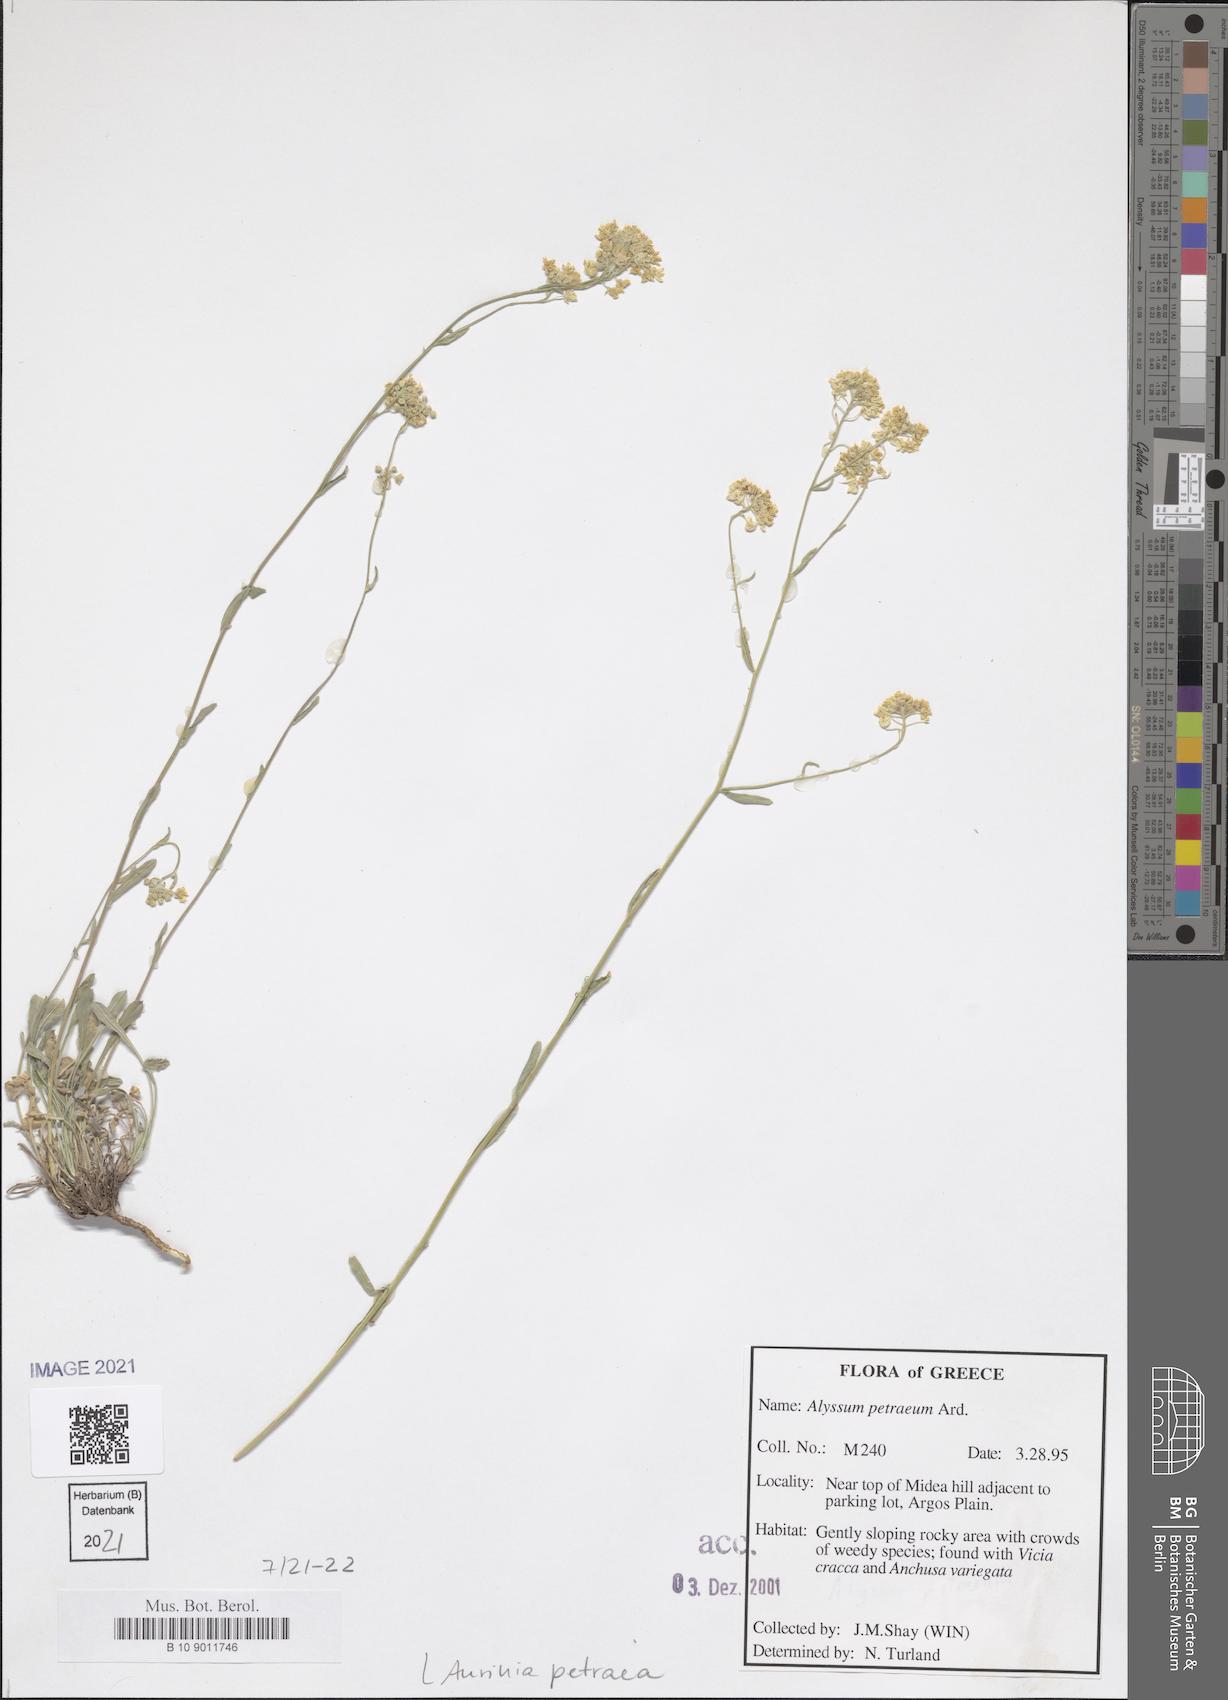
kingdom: Plantae
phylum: Tracheophyta
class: Magnoliopsida
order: Brassicales
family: Brassicaceae
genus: Aurinia
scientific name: Aurinia petraea
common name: Goldentuft
